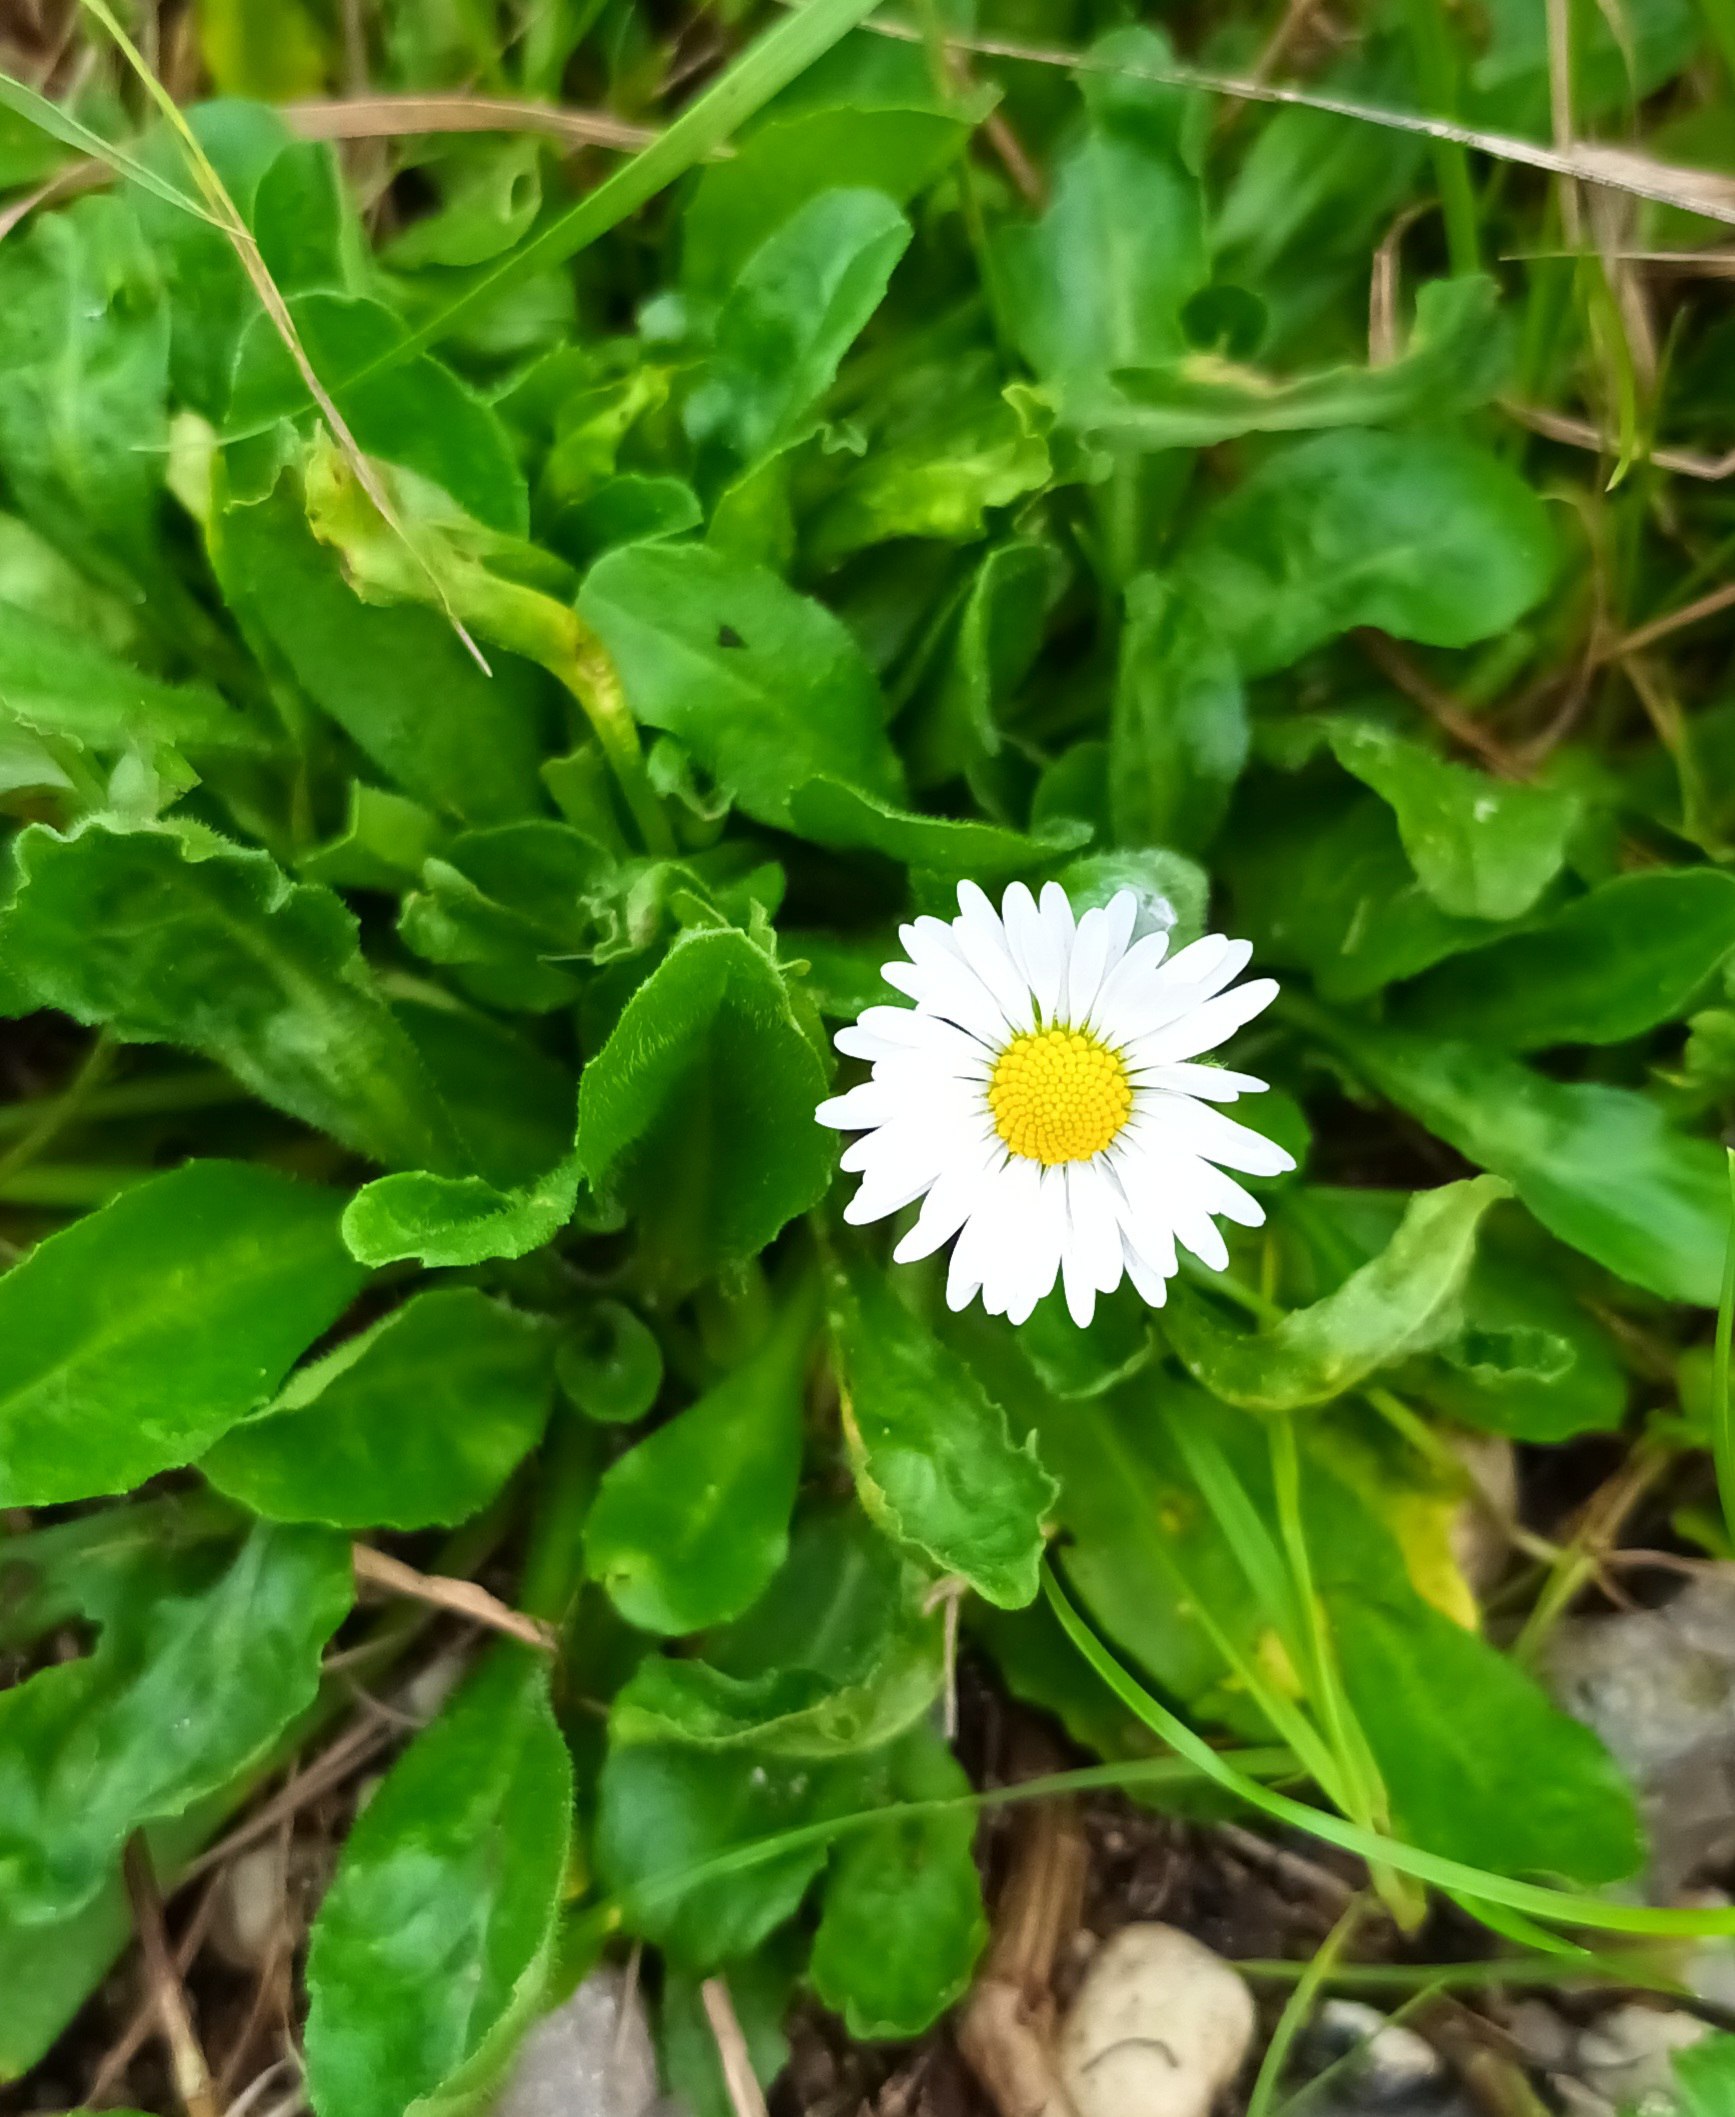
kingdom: Plantae
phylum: Tracheophyta
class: Magnoliopsida
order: Asterales
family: Asteraceae
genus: Bellis
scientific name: Bellis perennis
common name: Tusindfryd
